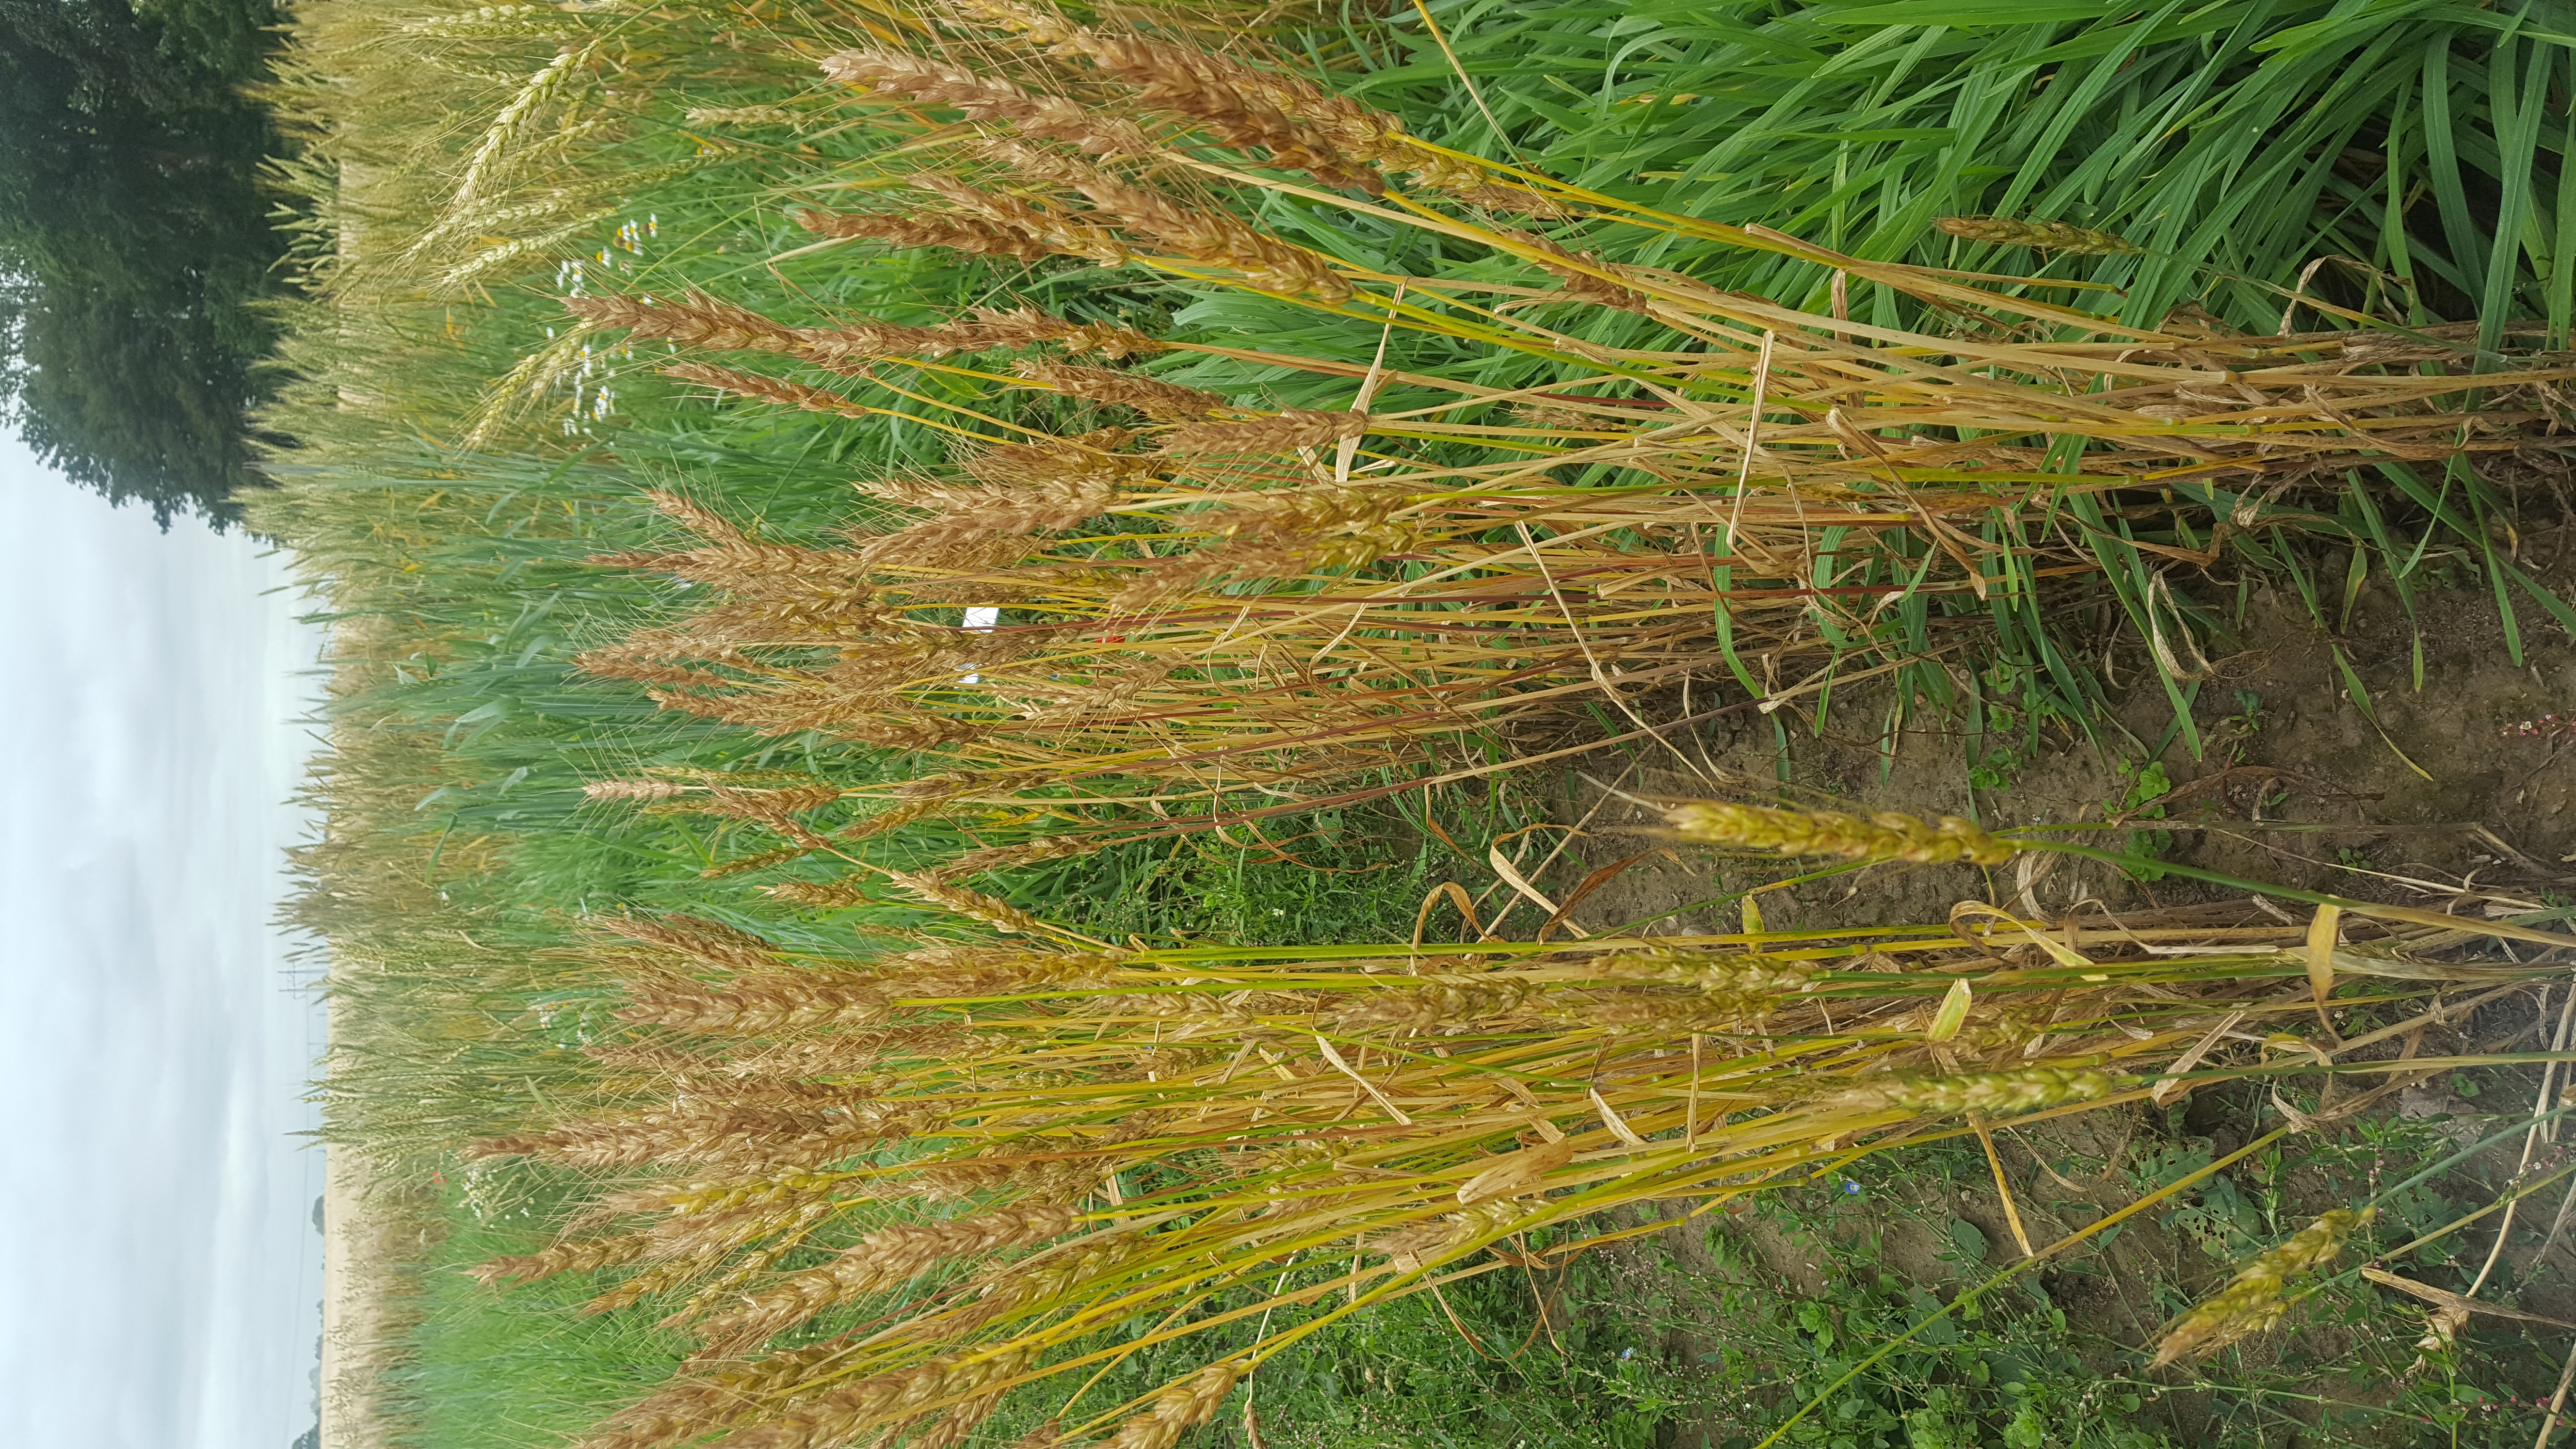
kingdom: Plantae
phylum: Tracheophyta
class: Liliopsida
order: Poales
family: Poaceae
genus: Triticum
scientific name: Triticum aestivum
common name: Common wheat
